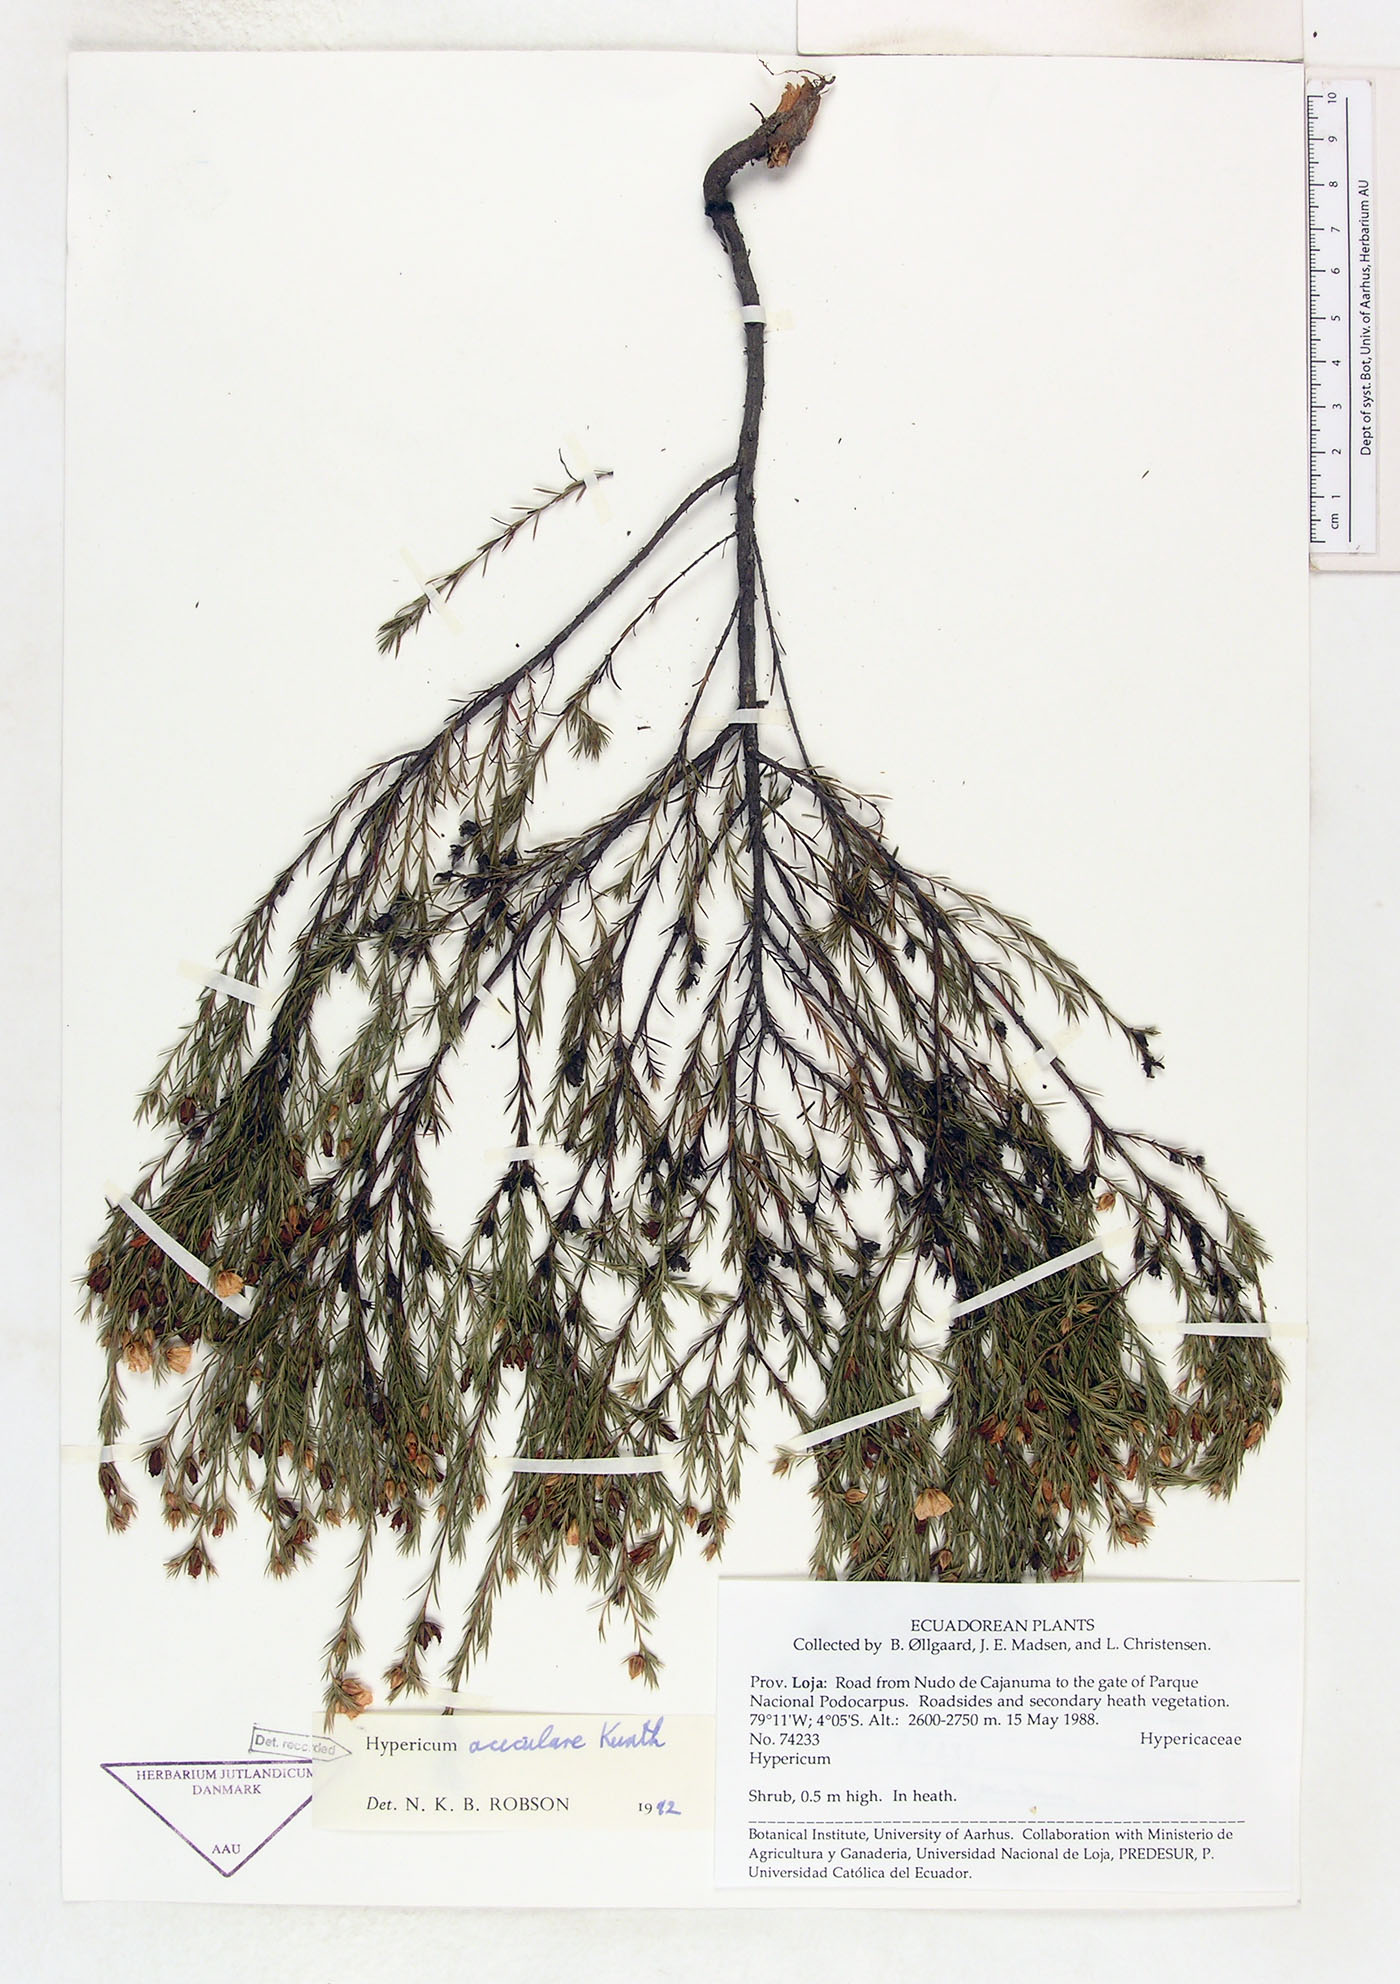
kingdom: Plantae
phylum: Tracheophyta
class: Magnoliopsida
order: Malpighiales
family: Hypericaceae
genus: Hypericum
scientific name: Hypericum aciculare
